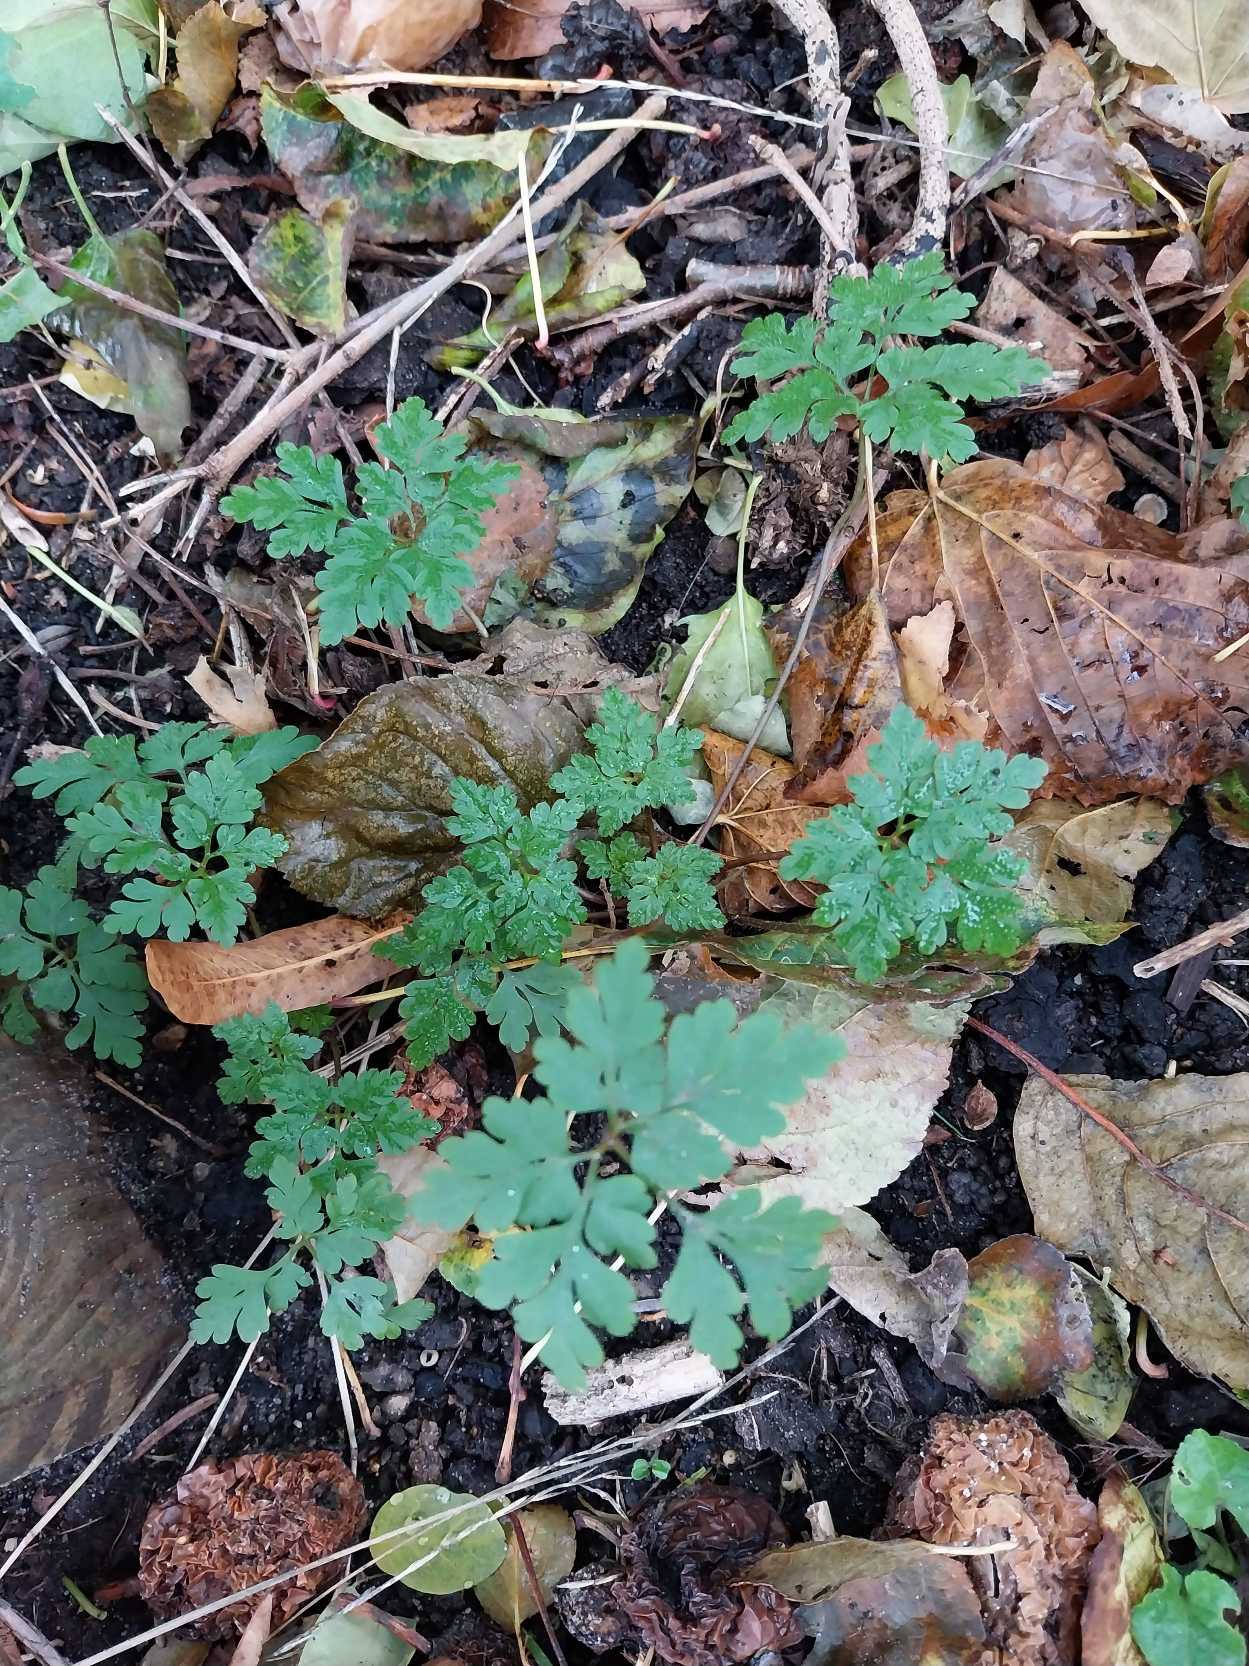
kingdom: Plantae
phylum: Tracheophyta
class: Magnoliopsida
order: Geraniales
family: Geraniaceae
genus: Geranium
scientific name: Geranium robertianum
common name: Stinkende storkenæb
